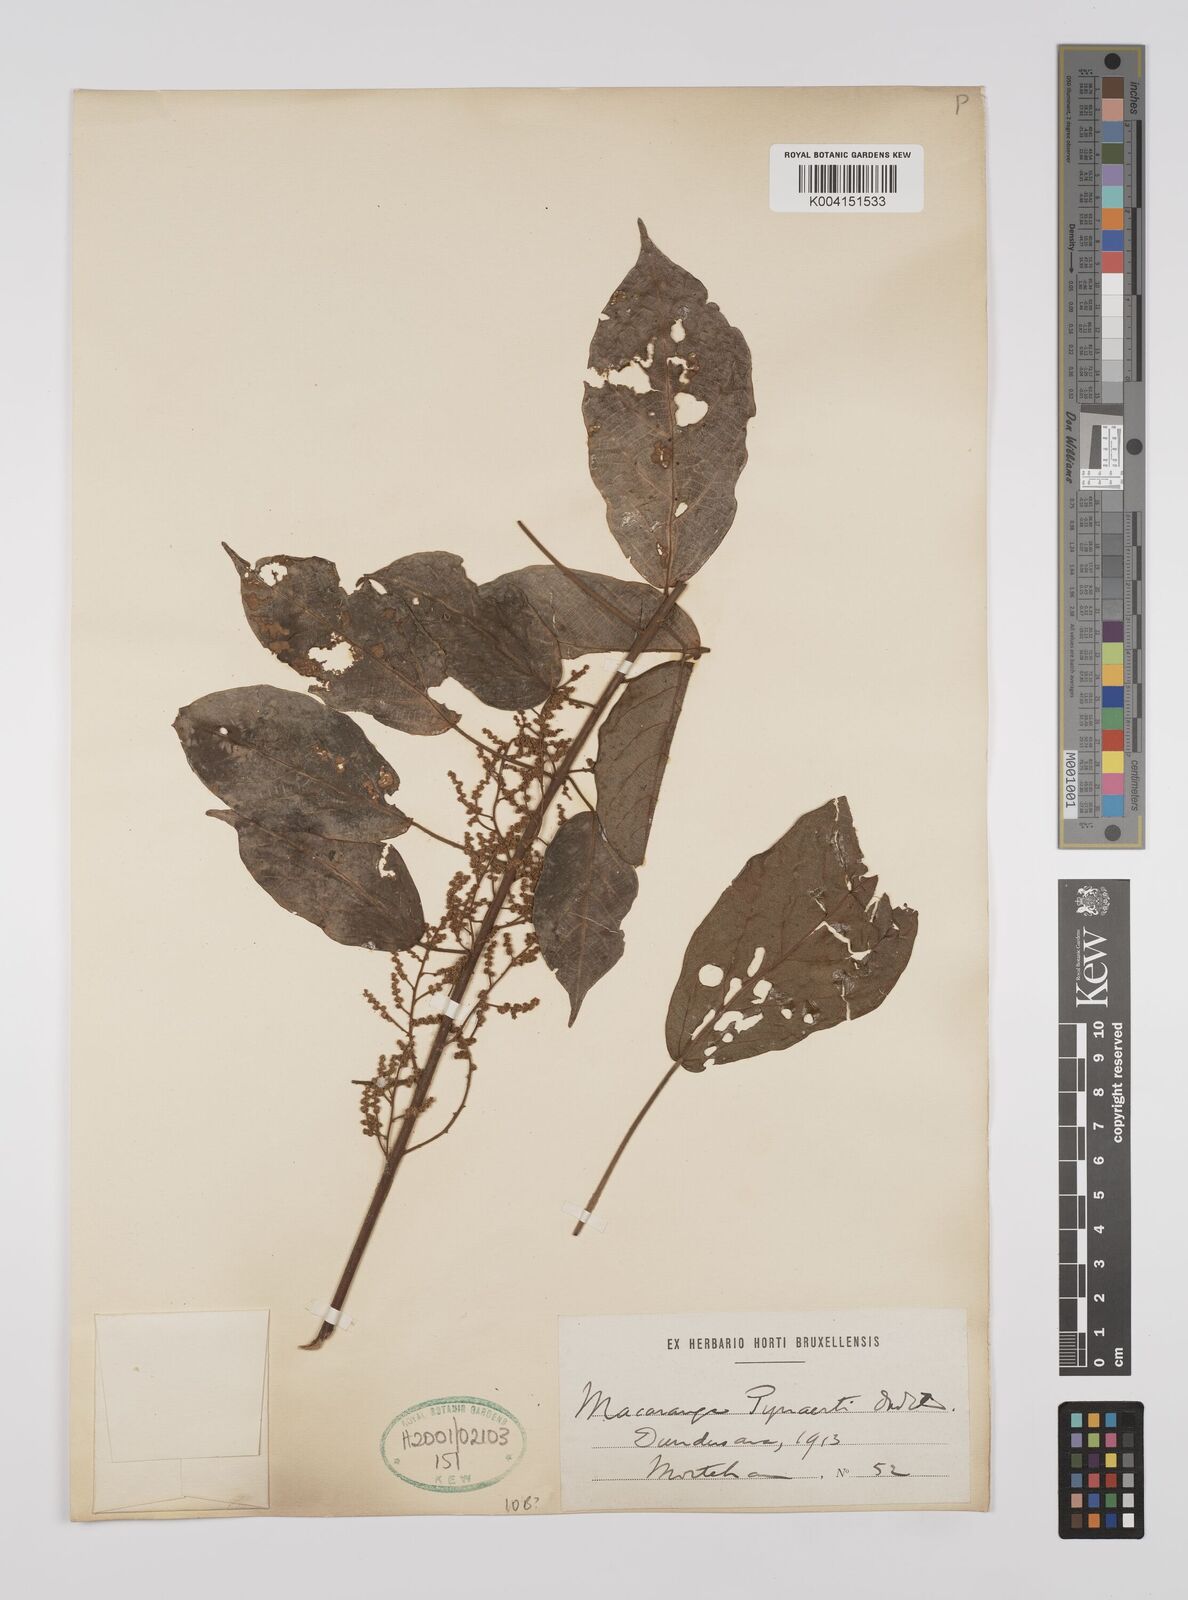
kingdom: Plantae
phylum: Tracheophyta
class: Magnoliopsida
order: Malpighiales
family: Euphorbiaceae
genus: Macaranga
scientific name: Macaranga spinosa
